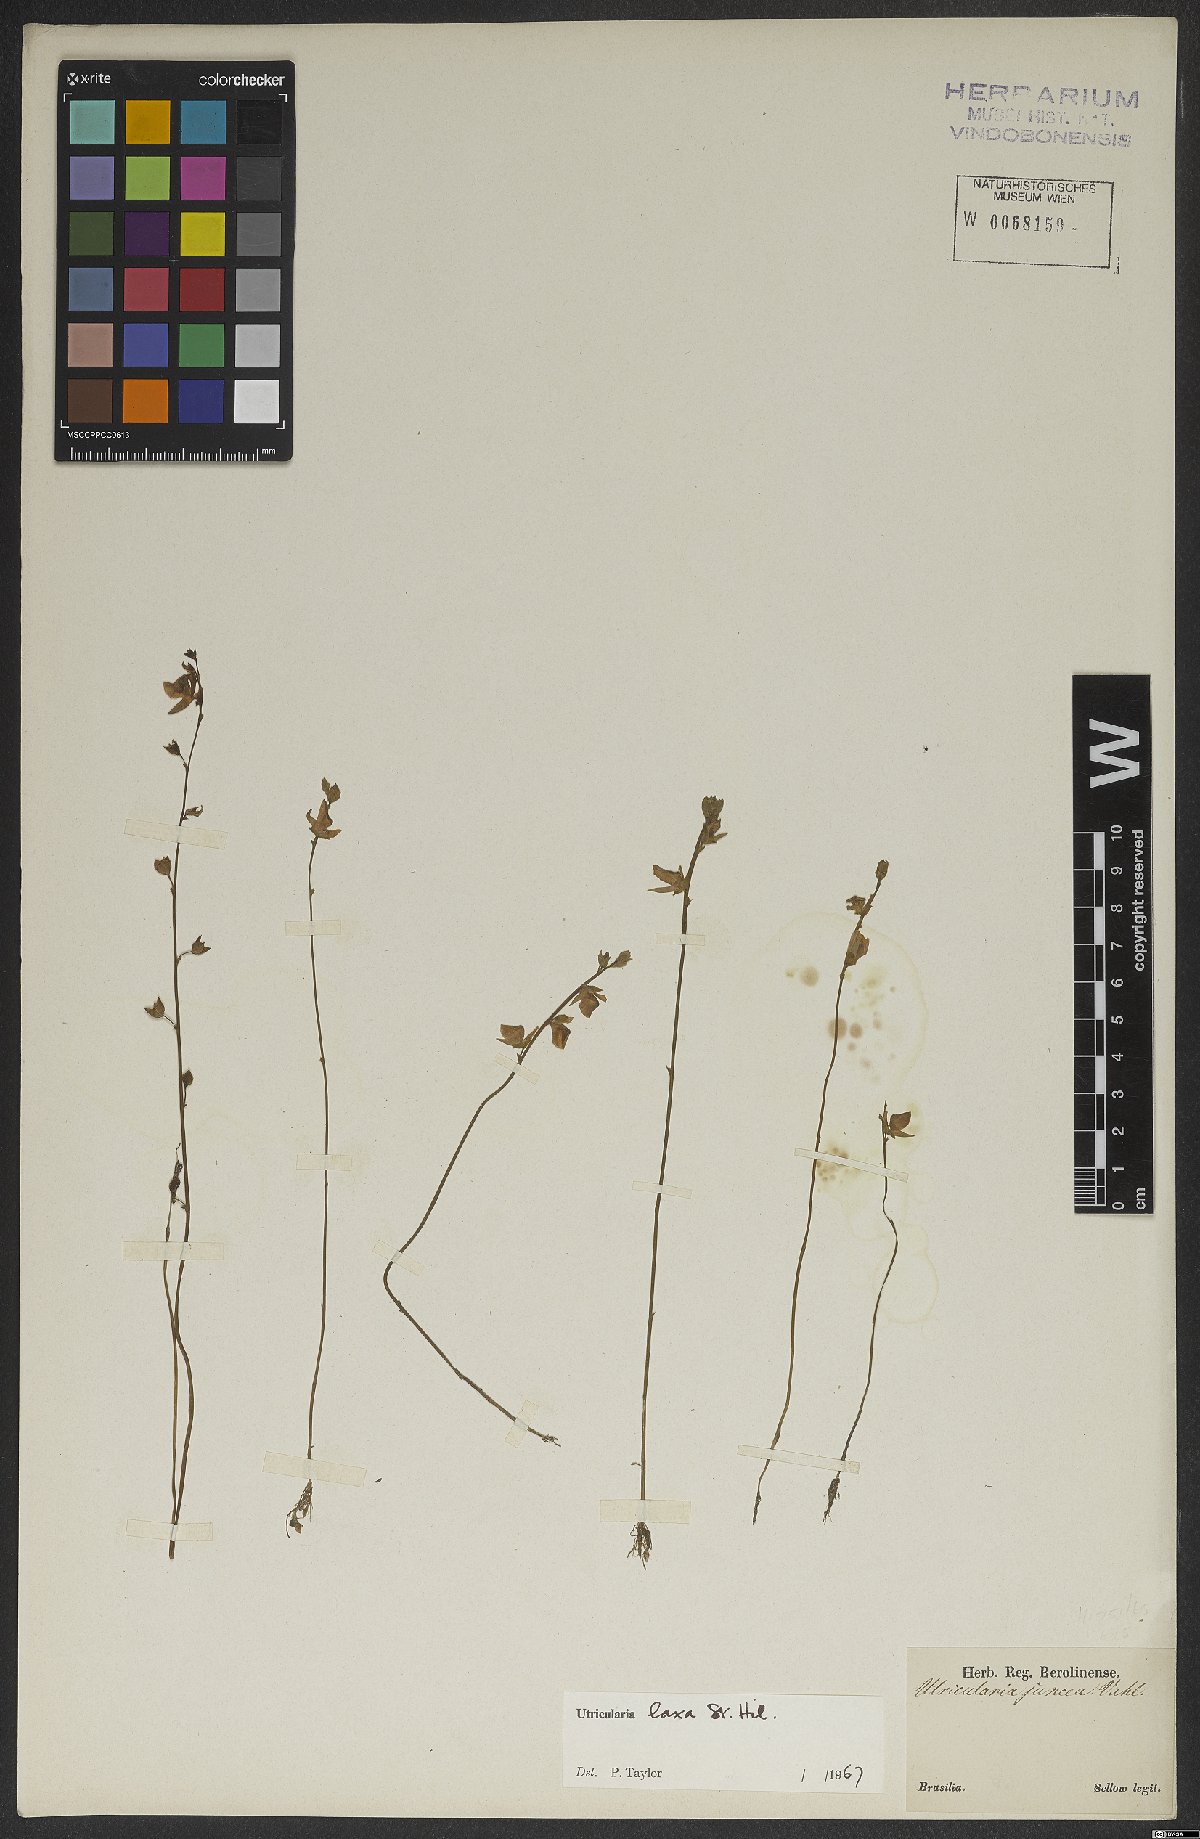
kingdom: Plantae
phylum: Tracheophyta
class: Magnoliopsida
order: Lamiales
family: Lentibulariaceae
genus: Utricularia
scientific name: Utricularia laxa
